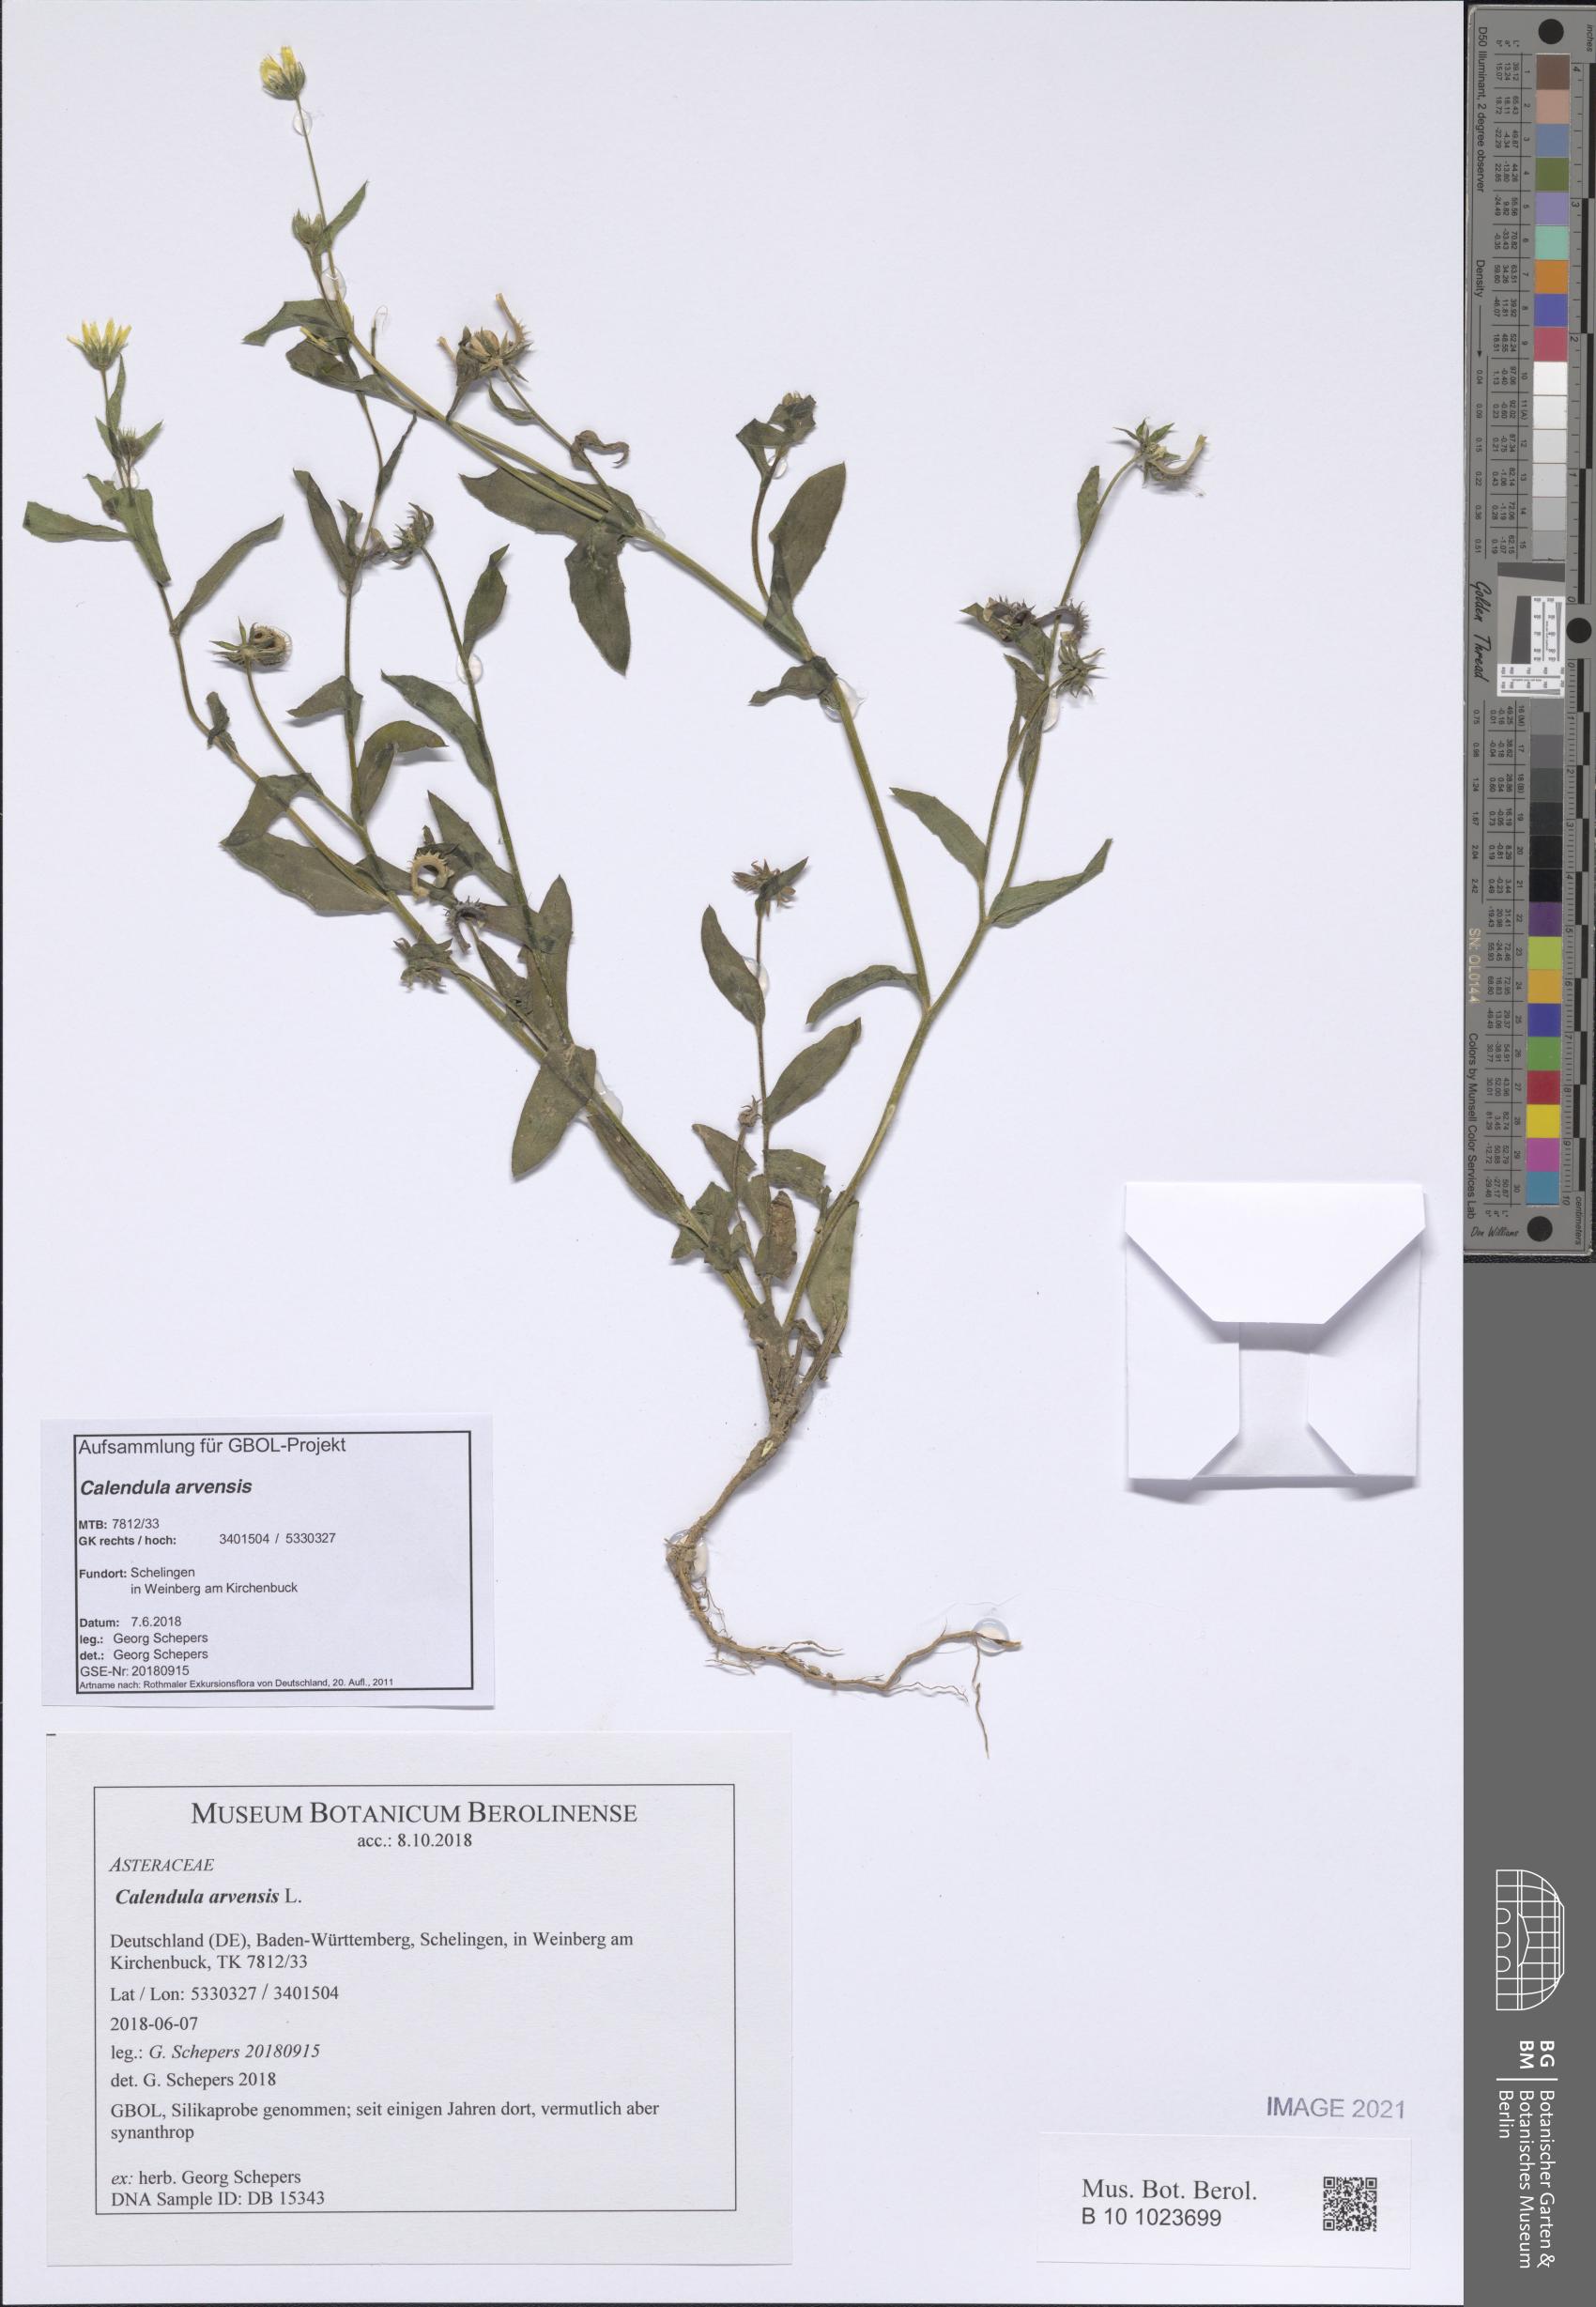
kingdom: Plantae
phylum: Tracheophyta
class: Magnoliopsida
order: Asterales
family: Asteraceae
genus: Calendula
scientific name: Calendula arvensis
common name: Field marigold
